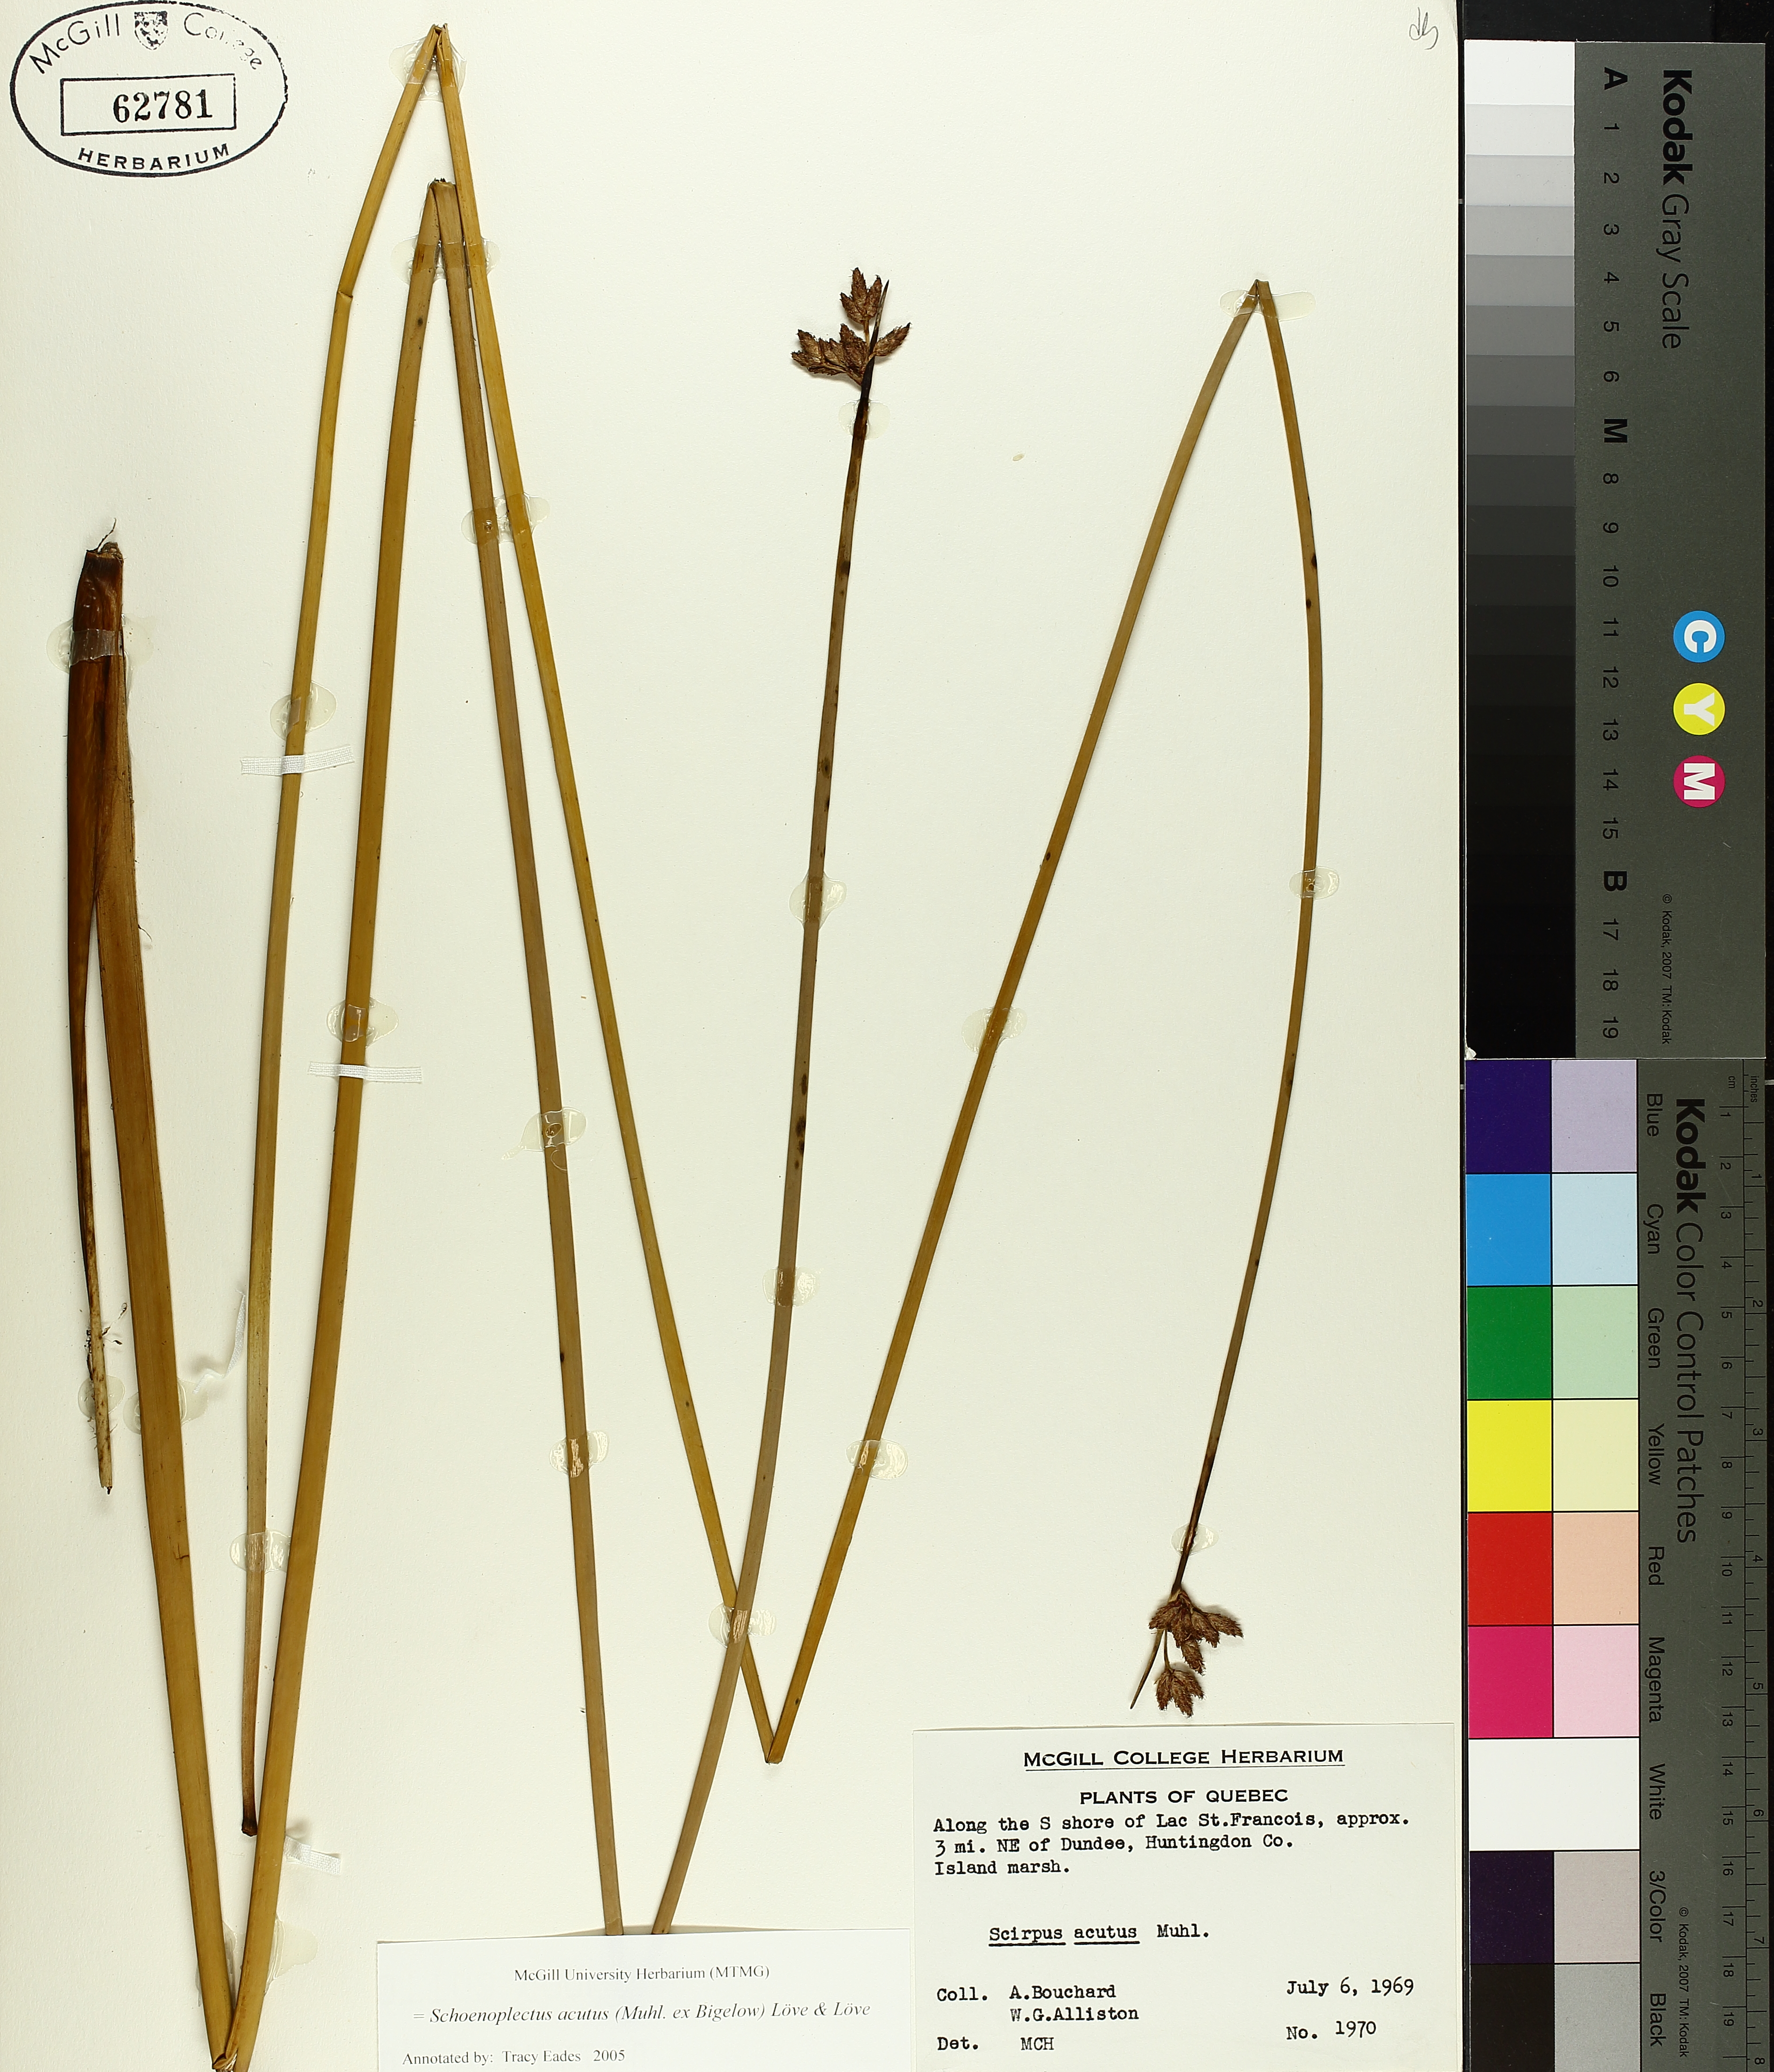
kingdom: Plantae
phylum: Tracheophyta
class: Liliopsida
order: Poales
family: Cyperaceae
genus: Schoenoplectus
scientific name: Schoenoplectus acutus
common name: Hardstem bulrush
